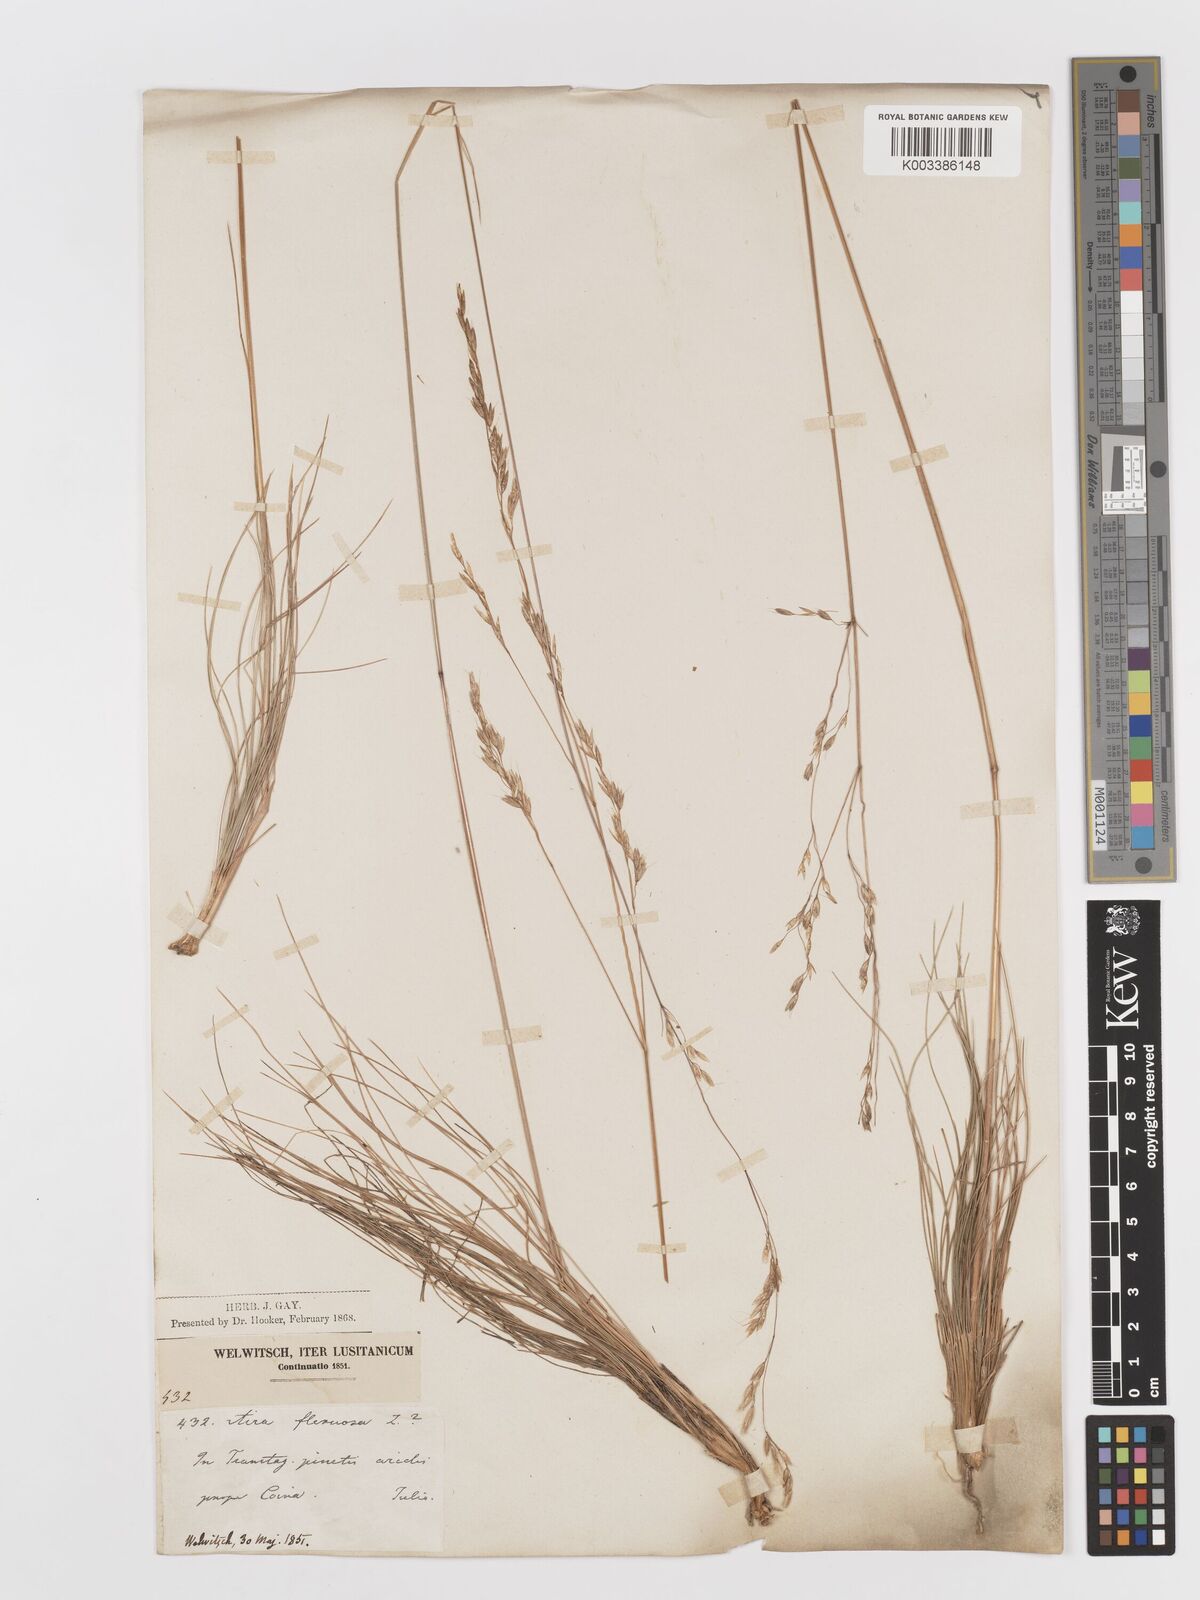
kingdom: Plantae
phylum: Tracheophyta
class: Liliopsida
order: Poales
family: Poaceae
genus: Avenella
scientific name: Avenella flexuosa
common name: Wavy hairgrass
